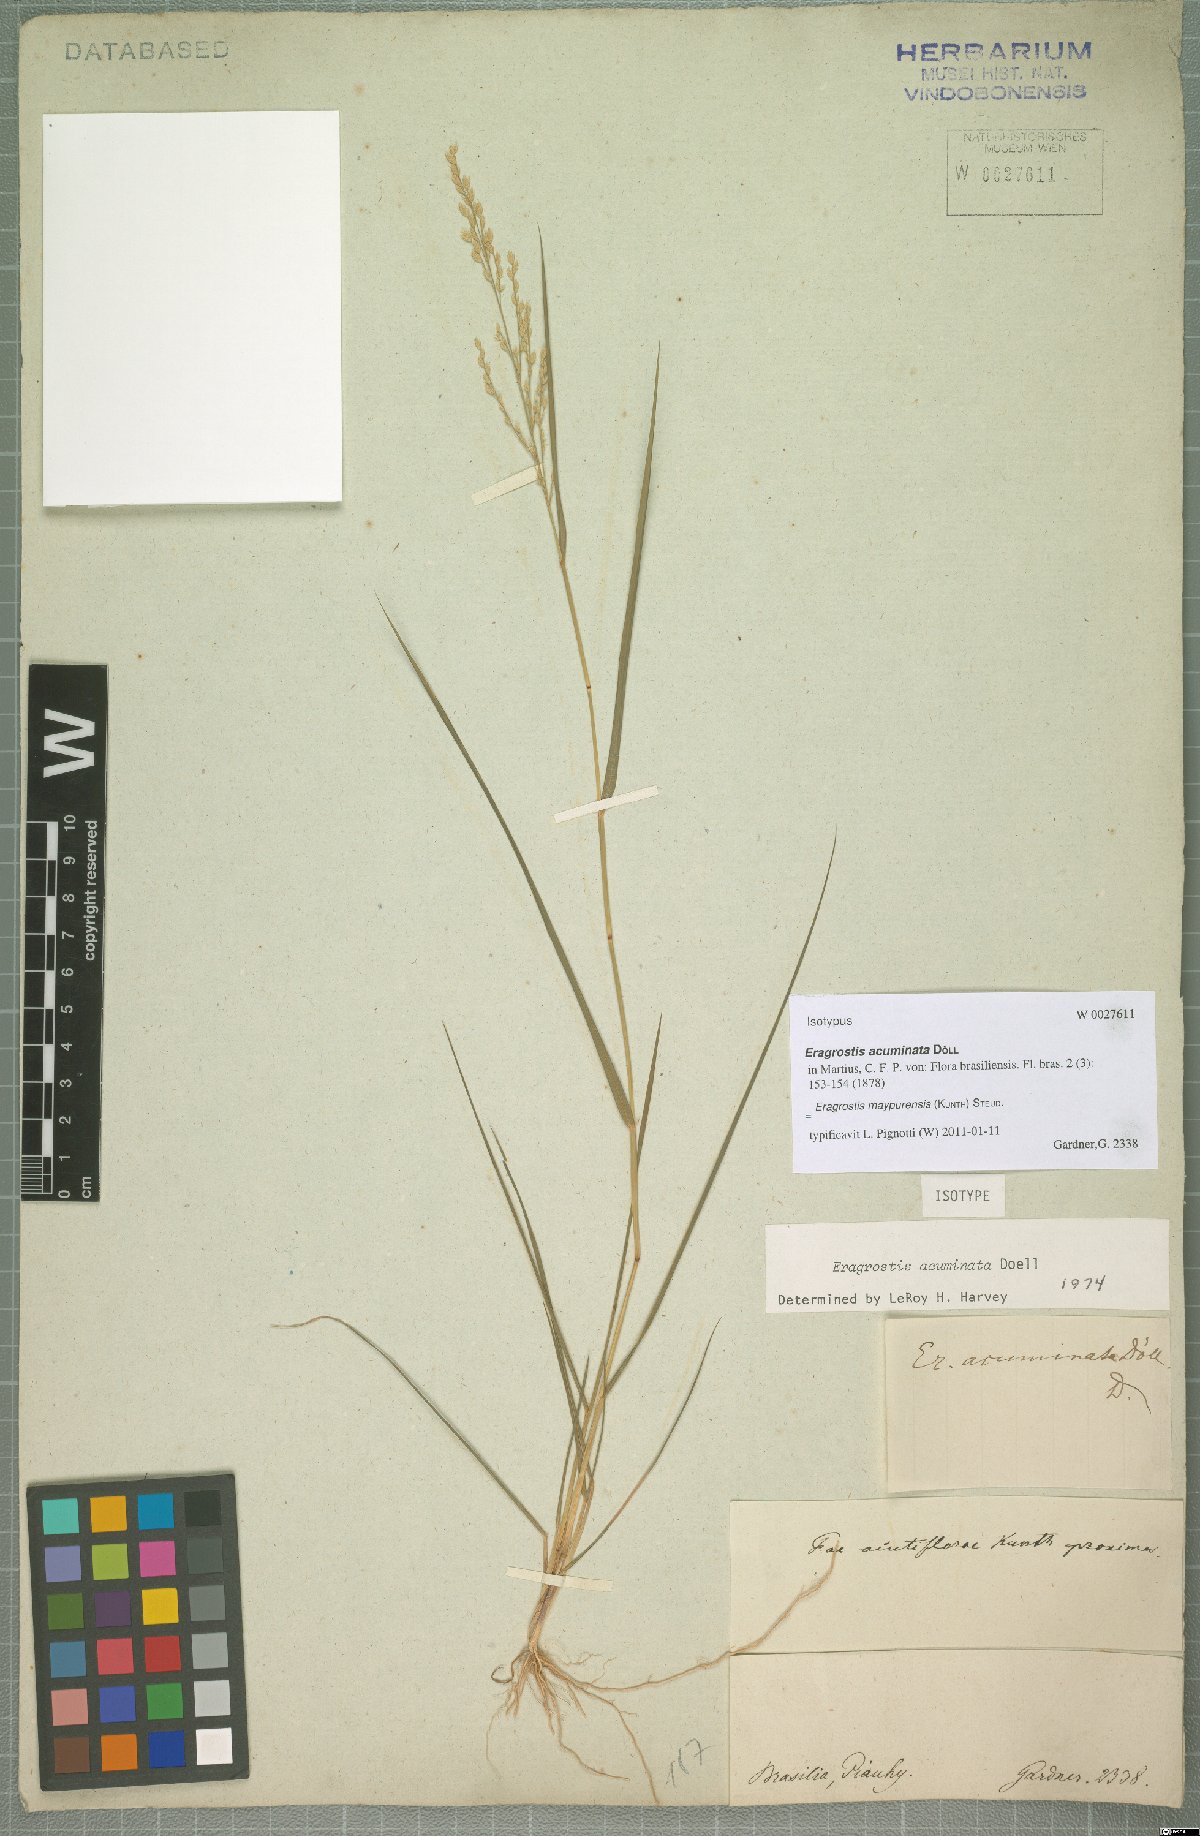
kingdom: Plantae
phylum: Tracheophyta
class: Liliopsida
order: Poales
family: Poaceae
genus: Eragrostis
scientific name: Eragrostis maypurensis
